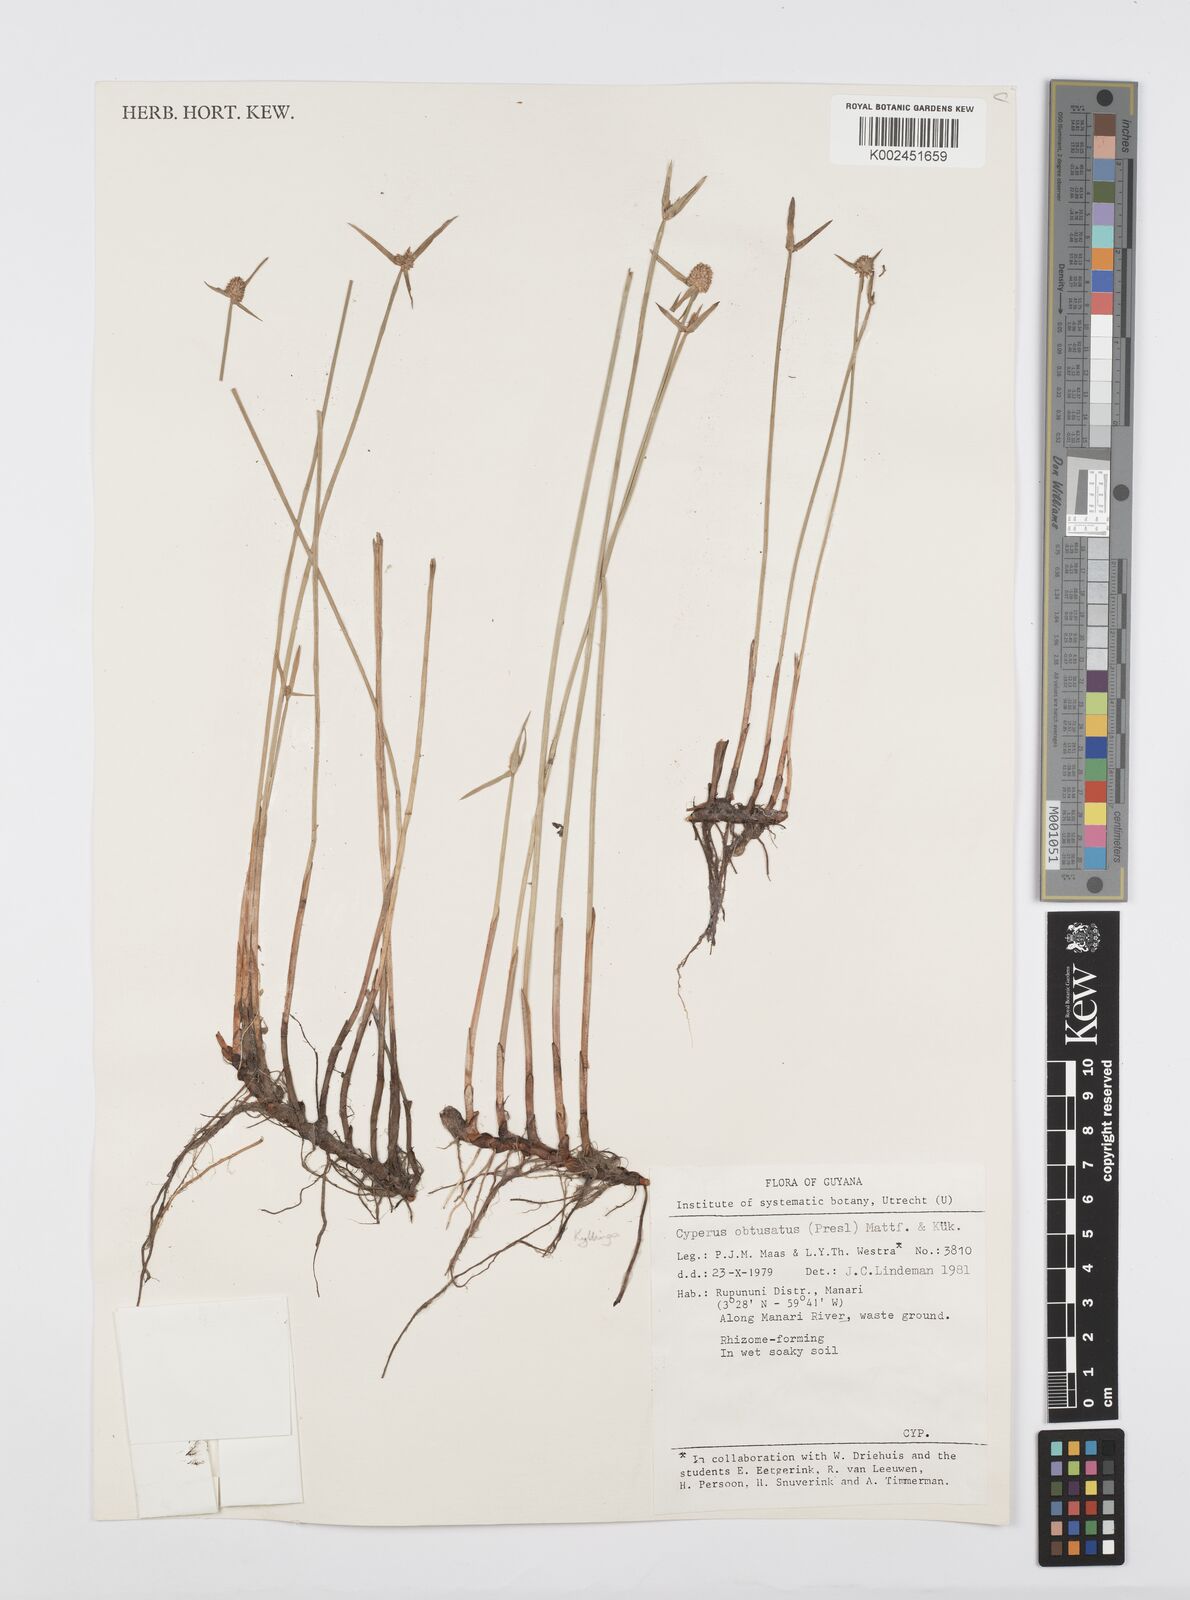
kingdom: Plantae
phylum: Tracheophyta
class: Liliopsida
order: Poales
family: Cyperaceae
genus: Cyperus
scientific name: Cyperus obtusatus
